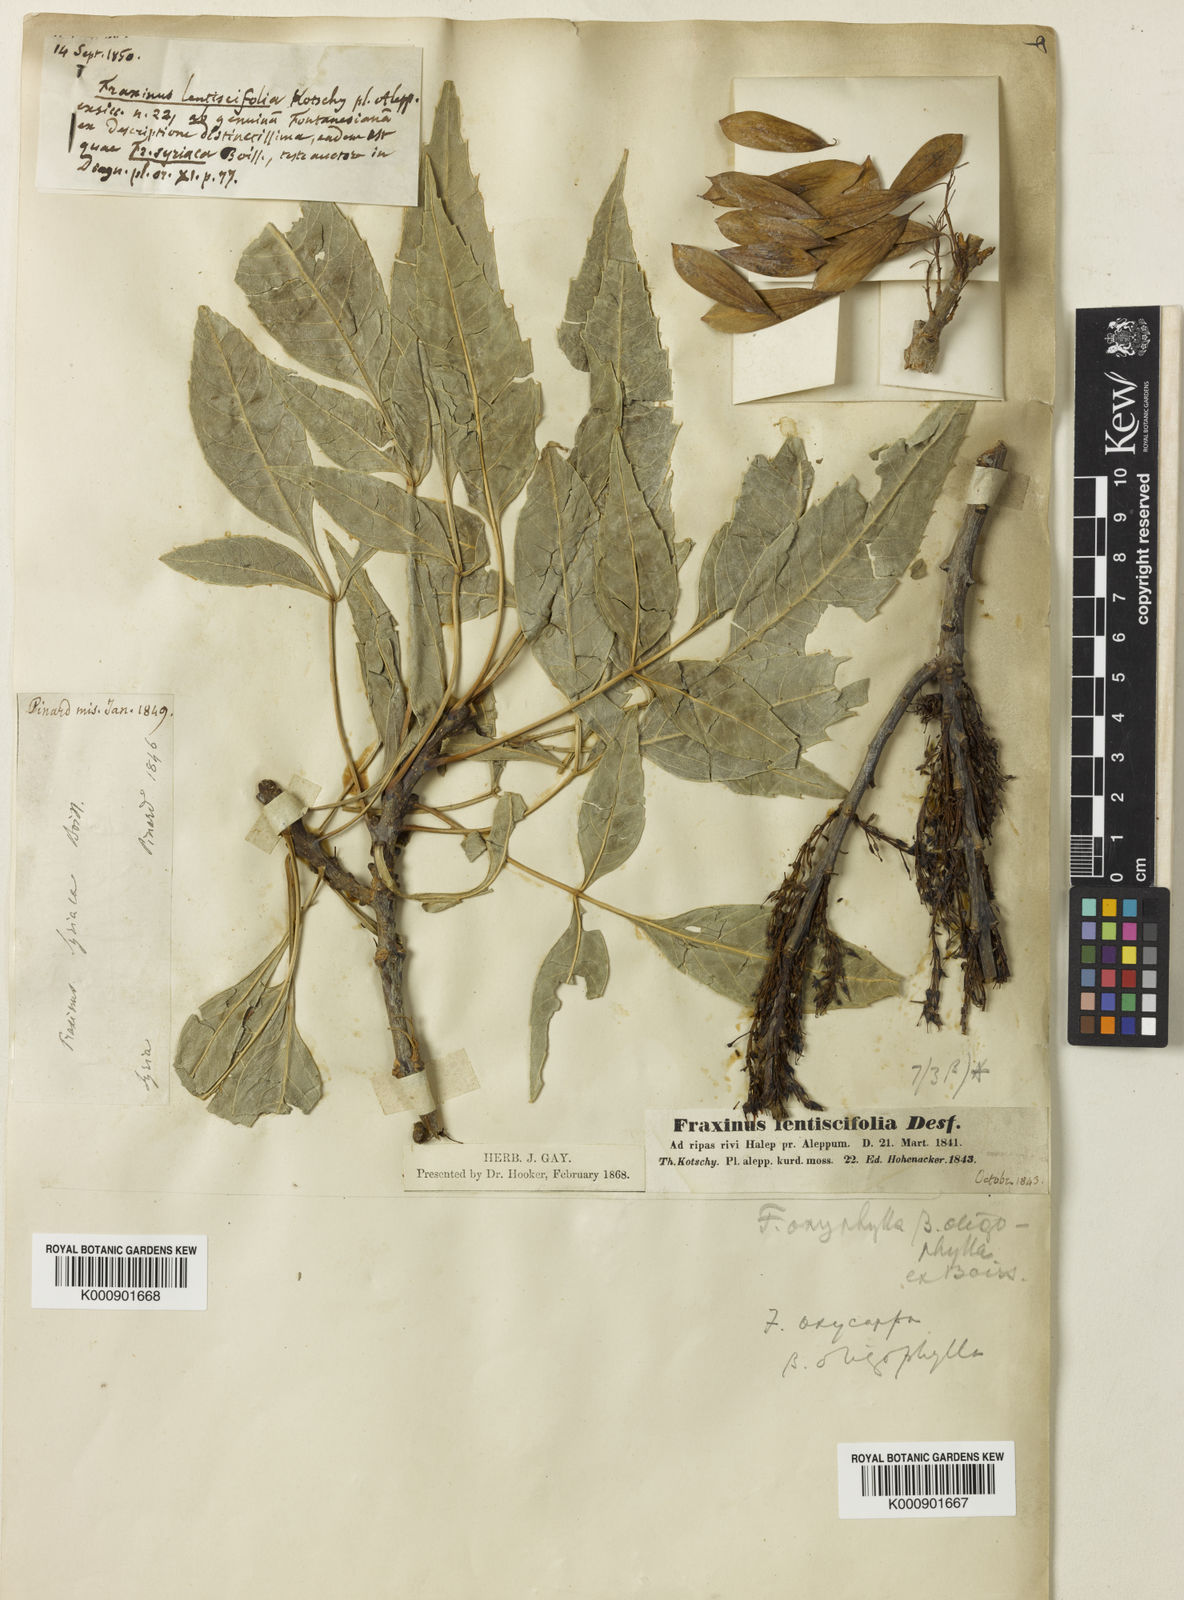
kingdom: Plantae
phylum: Tracheophyta
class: Magnoliopsida
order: Lamiales
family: Oleaceae
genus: Fraxinus
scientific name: Fraxinus
